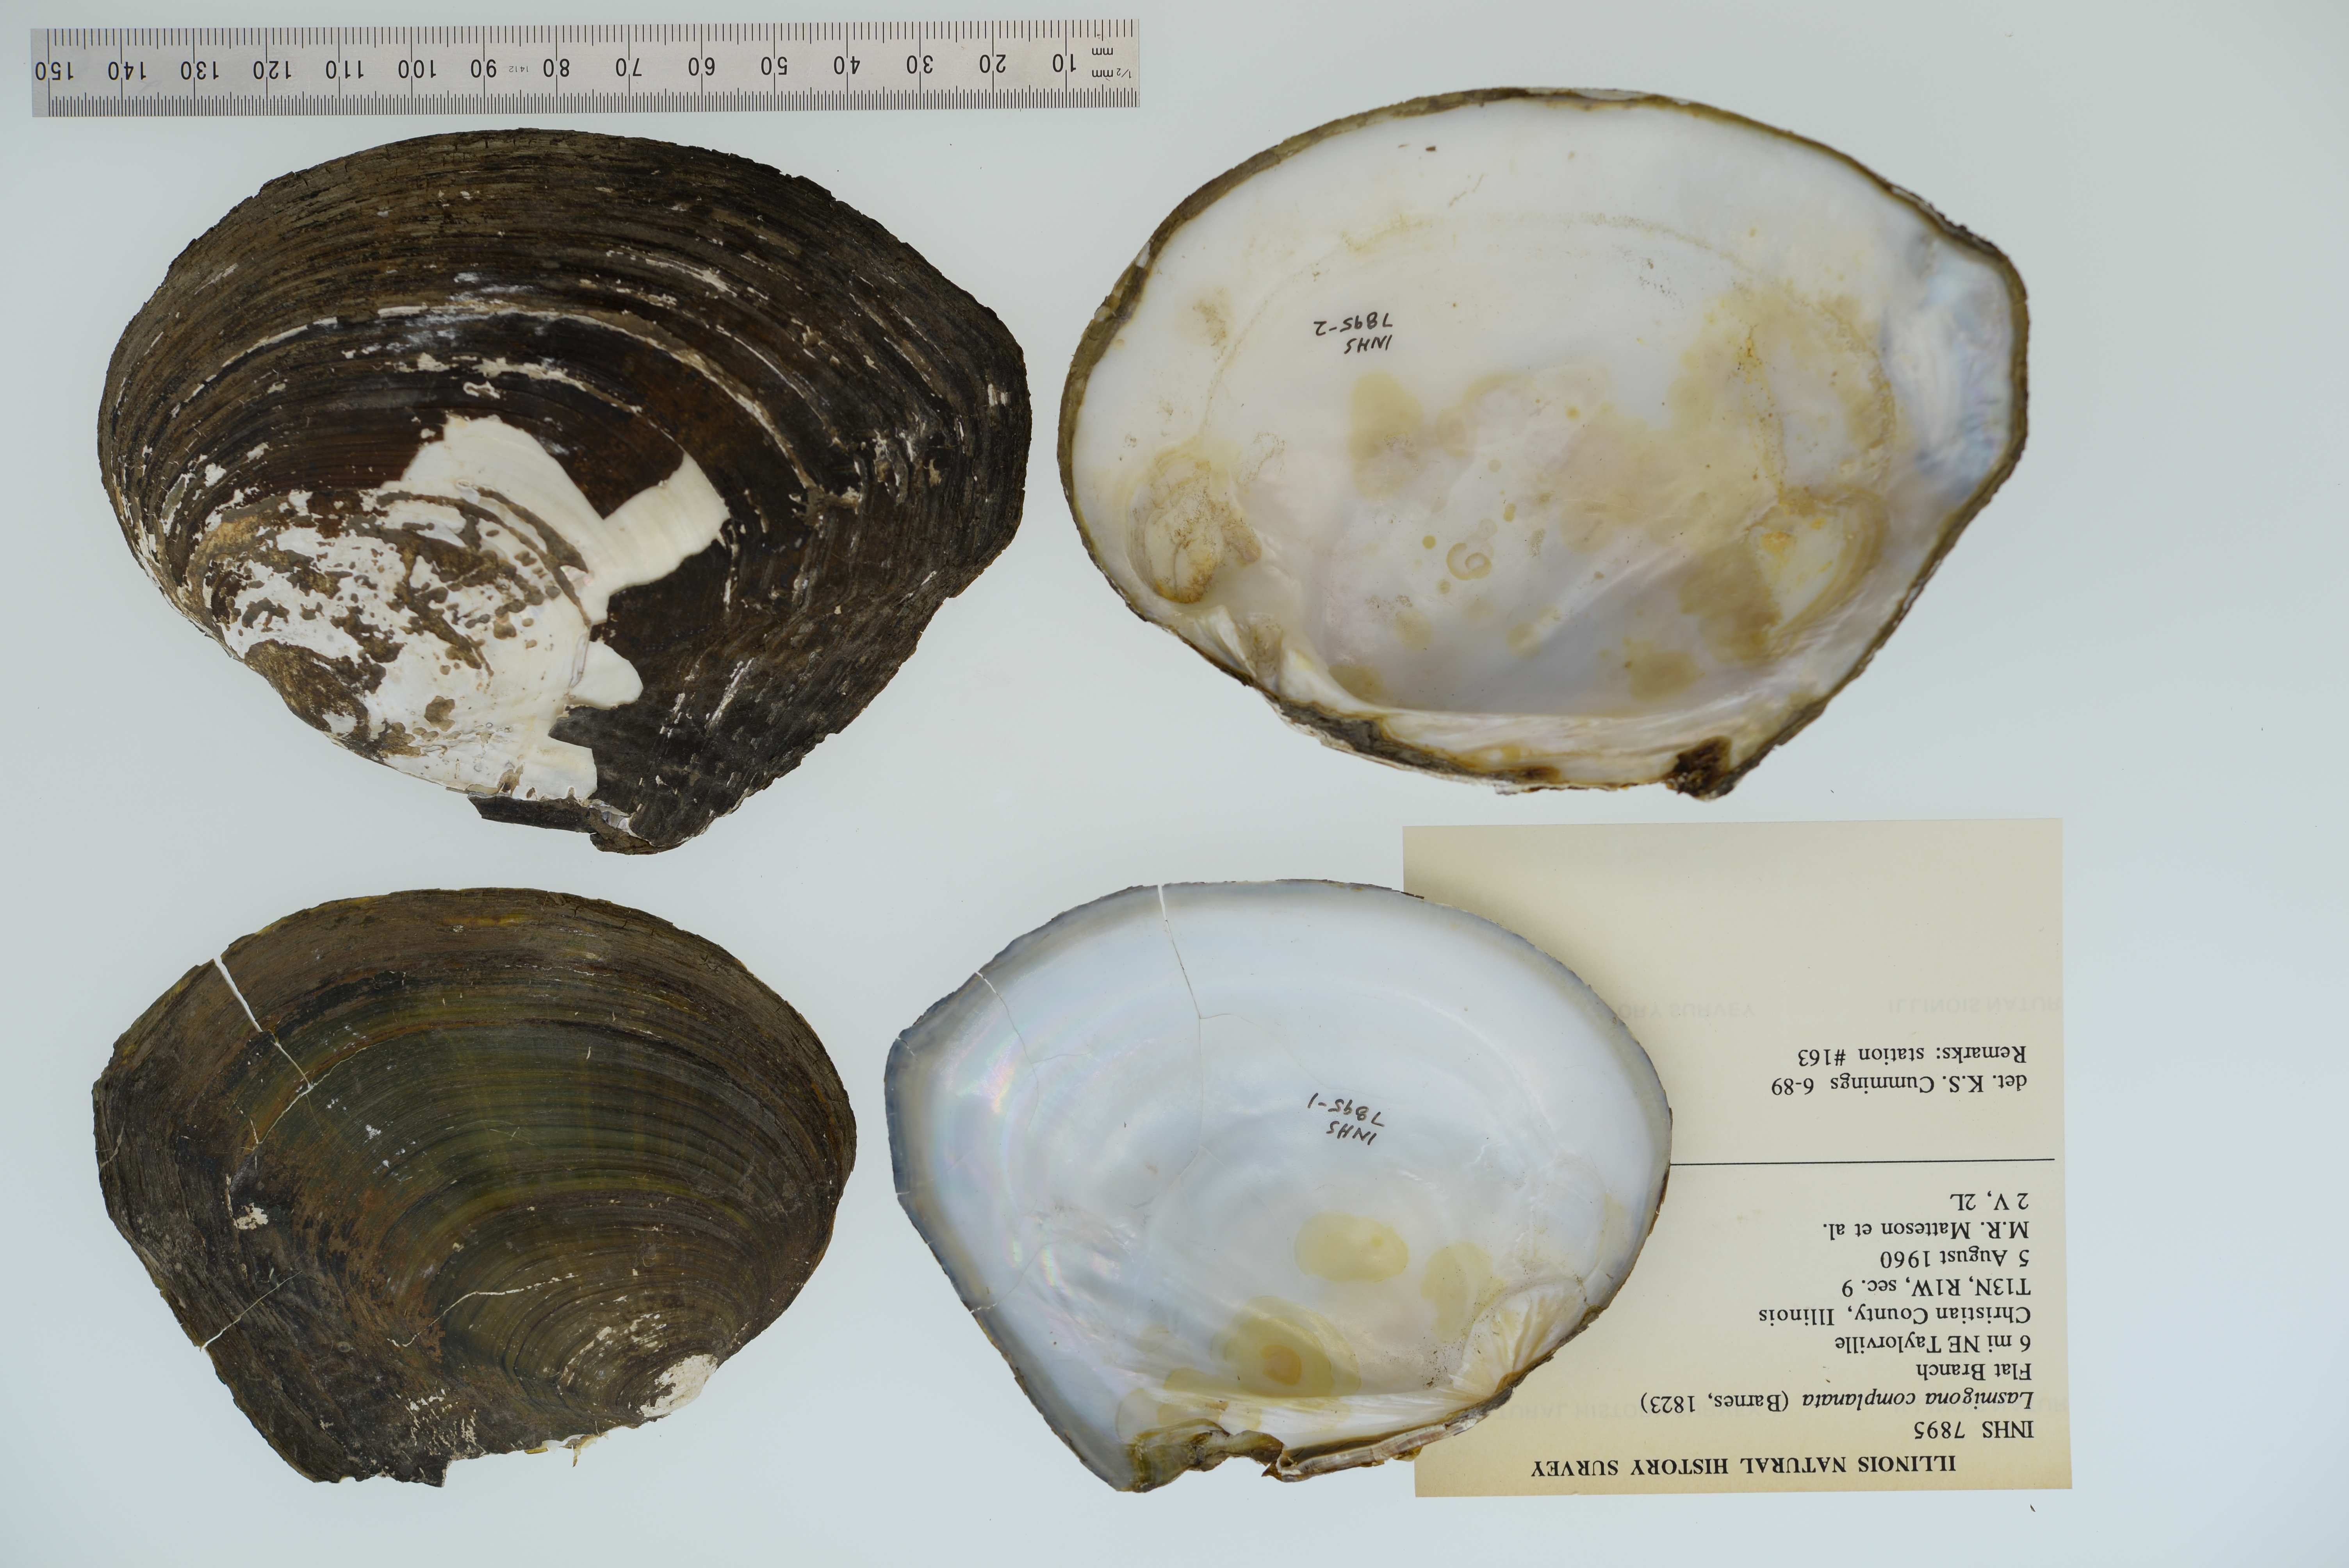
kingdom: Animalia
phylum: Mollusca
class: Bivalvia
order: Unionida
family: Unionidae
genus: Lasmigona
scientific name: Lasmigona complanata
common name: White heelsplitter
